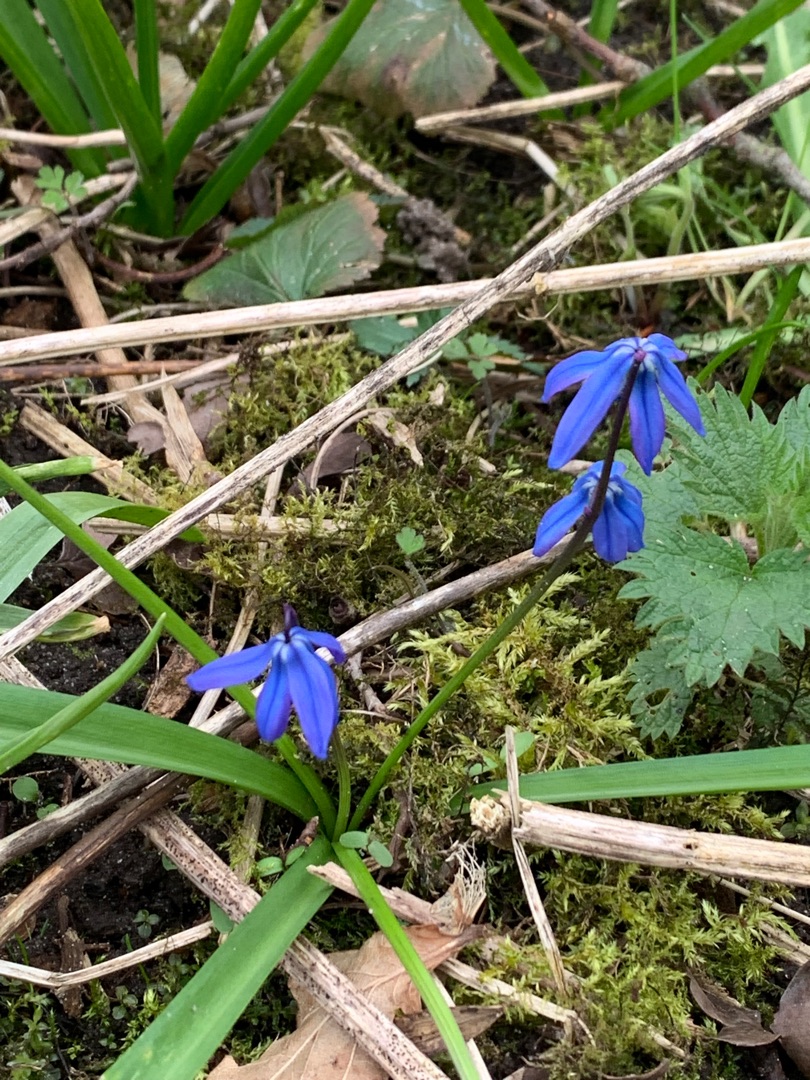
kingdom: Plantae
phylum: Tracheophyta
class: Liliopsida
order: Asparagales
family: Asparagaceae
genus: Scilla
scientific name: Scilla siberica
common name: Russisk skilla
